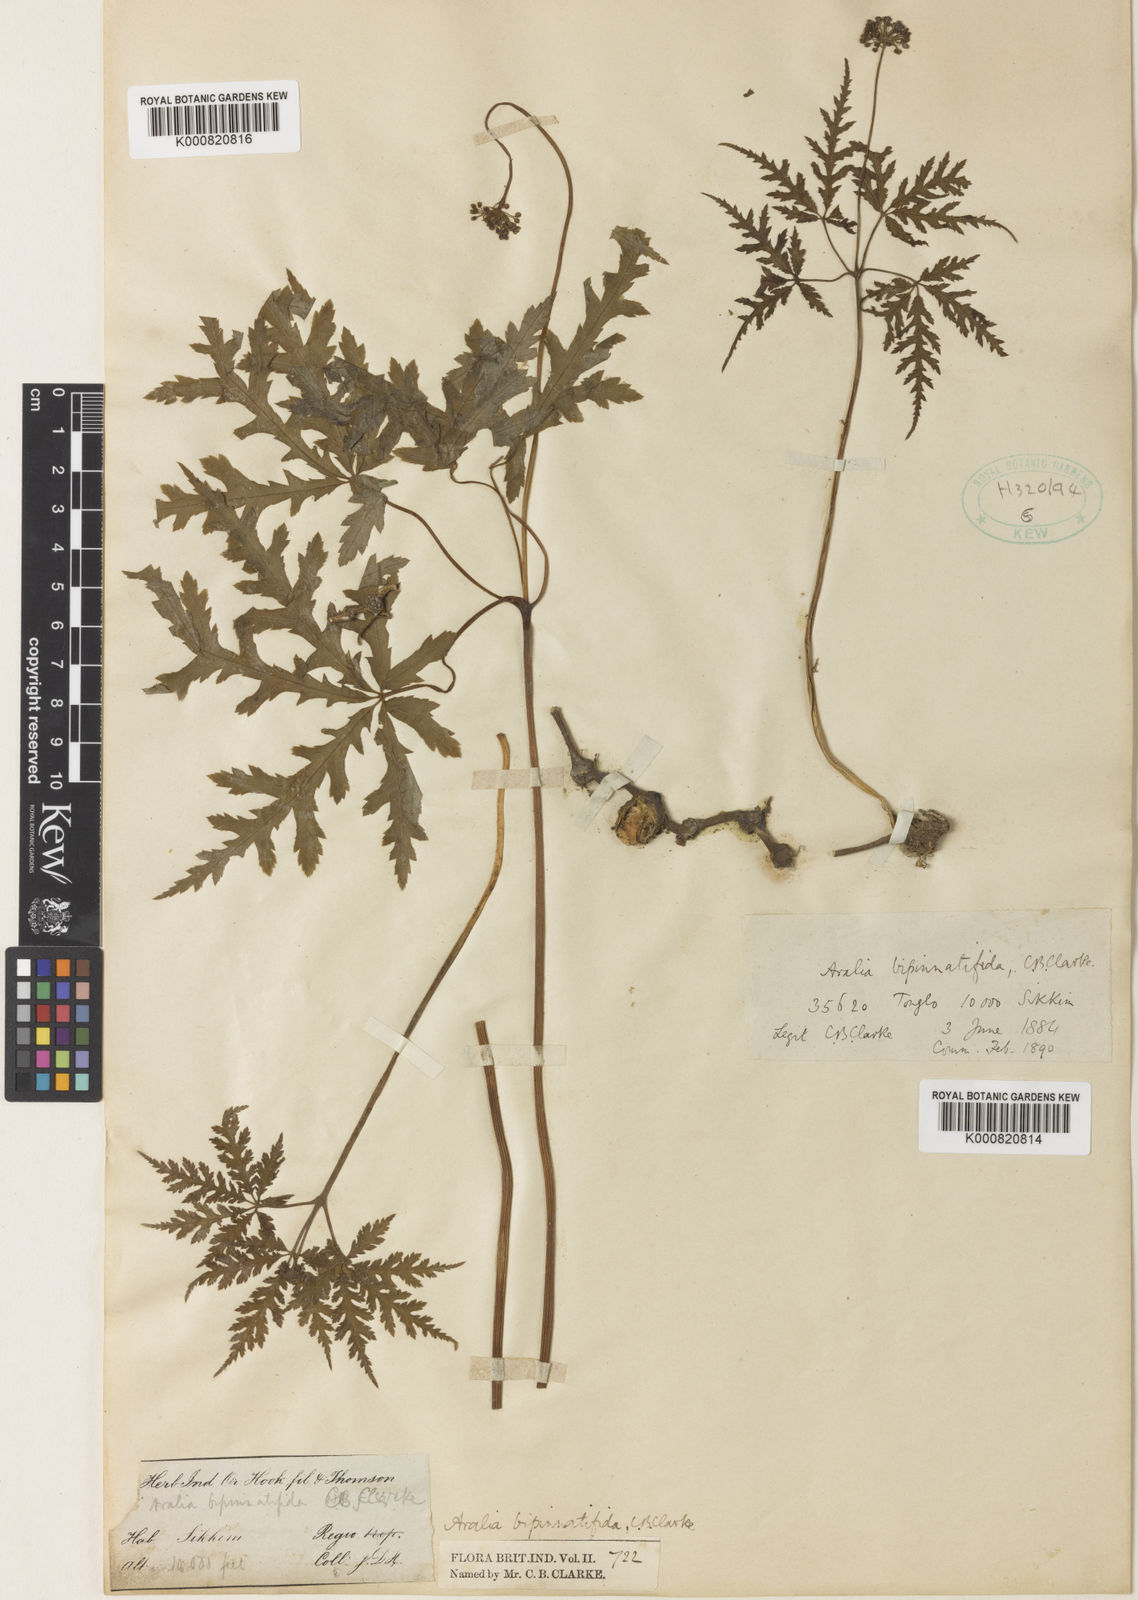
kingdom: Plantae
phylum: Tracheophyta
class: Magnoliopsida
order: Apiales
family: Araliaceae
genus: Panax
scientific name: Panax bipinnatifidus
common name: Feather-leaf bamboo ginseng
